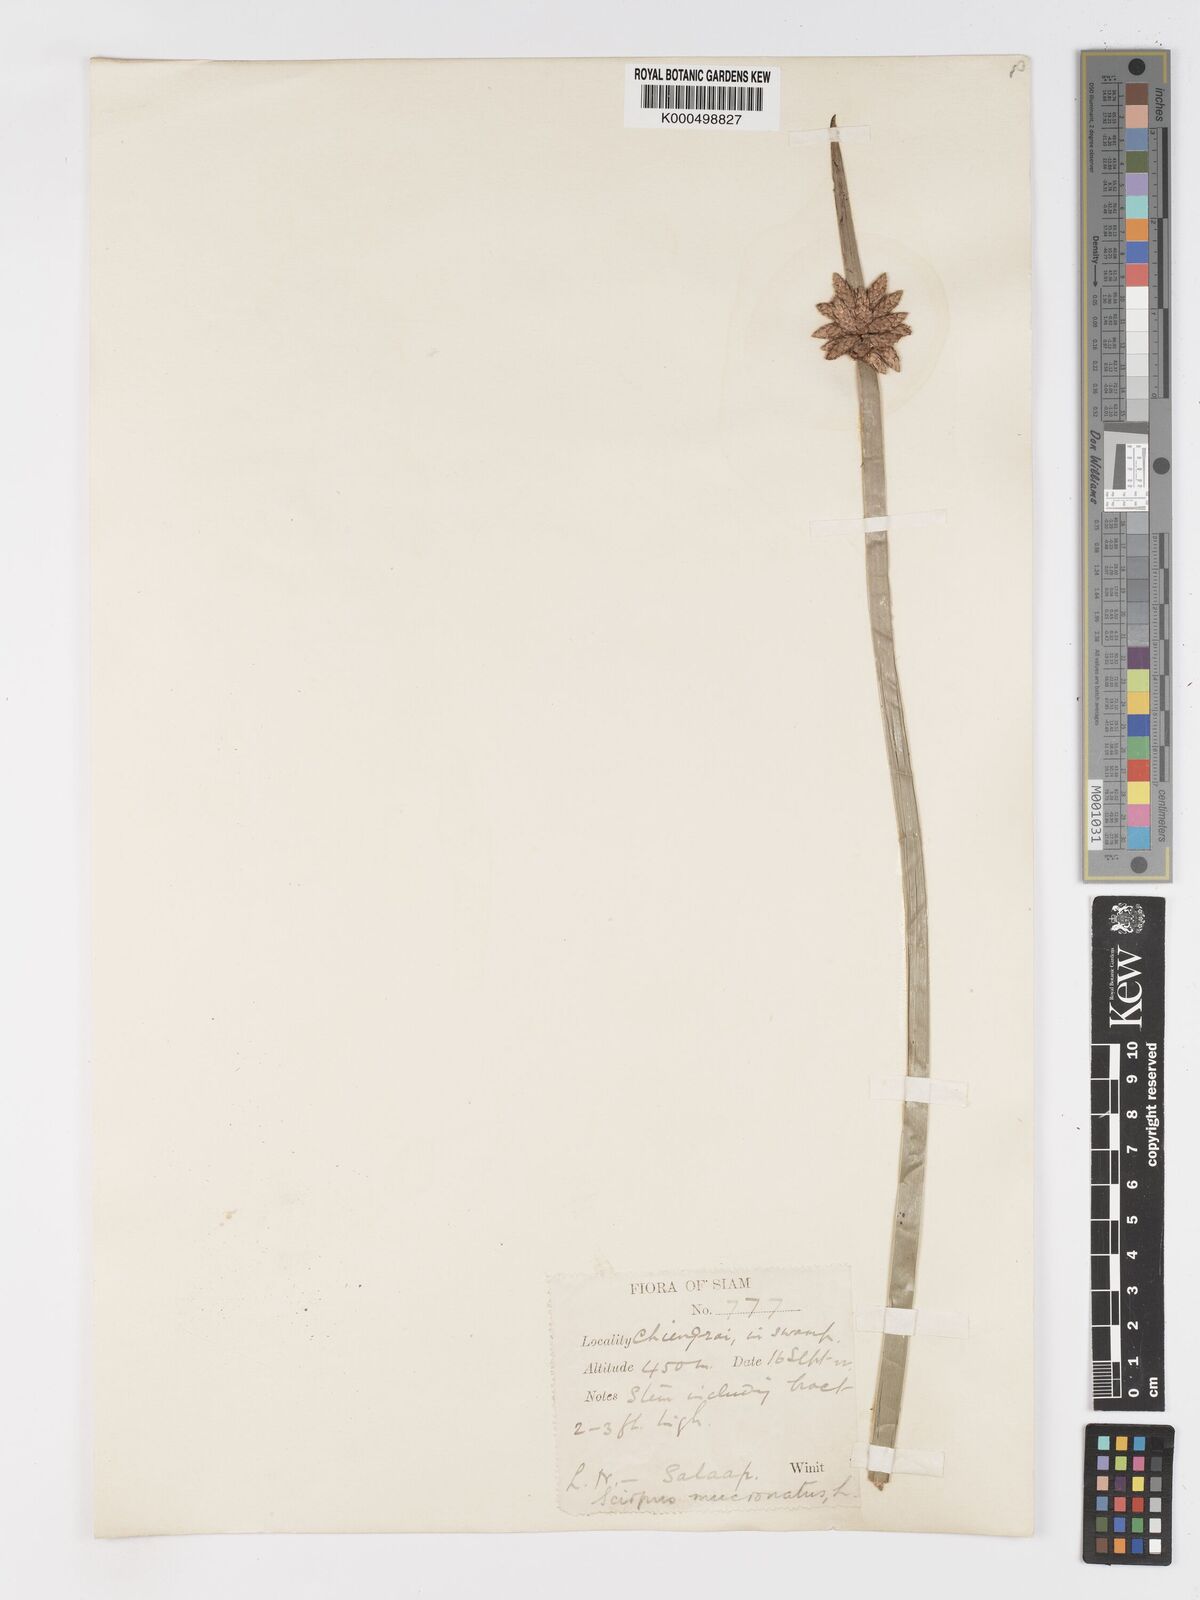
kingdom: Plantae
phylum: Tracheophyta
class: Liliopsida
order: Poales
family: Cyperaceae
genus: Schoenoplectiella
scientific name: Schoenoplectiella mucronata
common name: Bog bulrush
